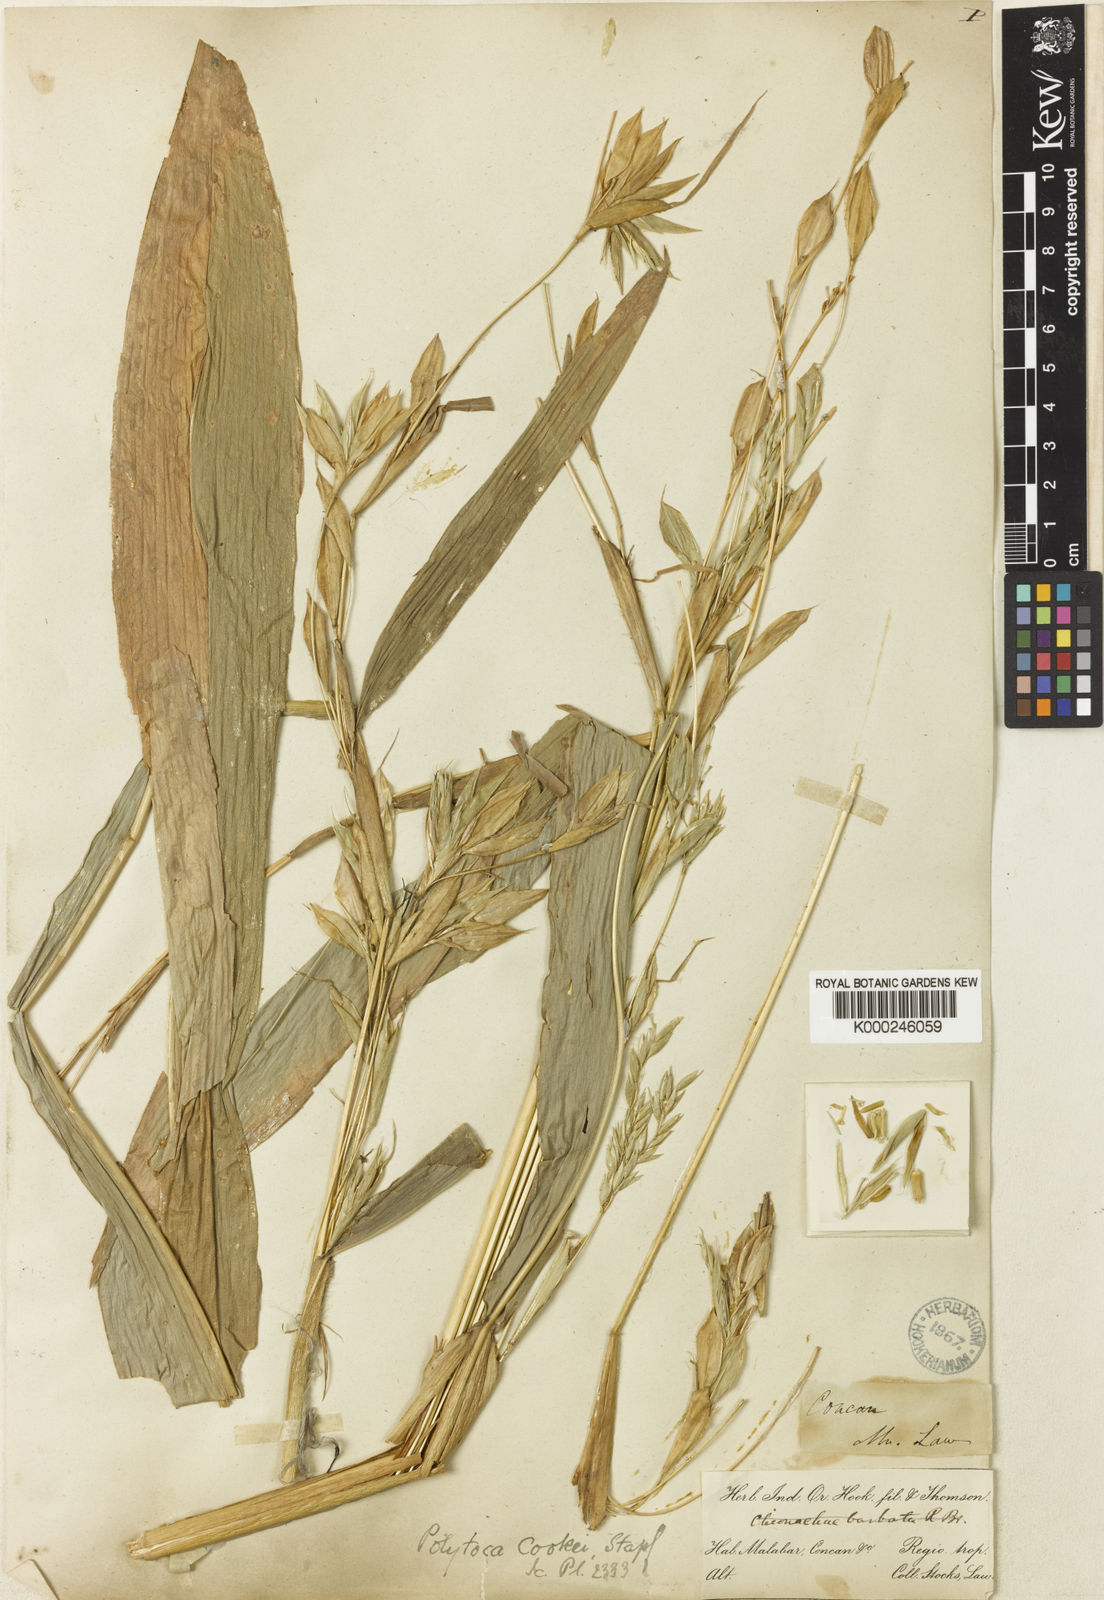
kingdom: Plantae
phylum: Tracheophyta
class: Liliopsida
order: Poales
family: Poaceae
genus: Trilobachne
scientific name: Trilobachne cookei
